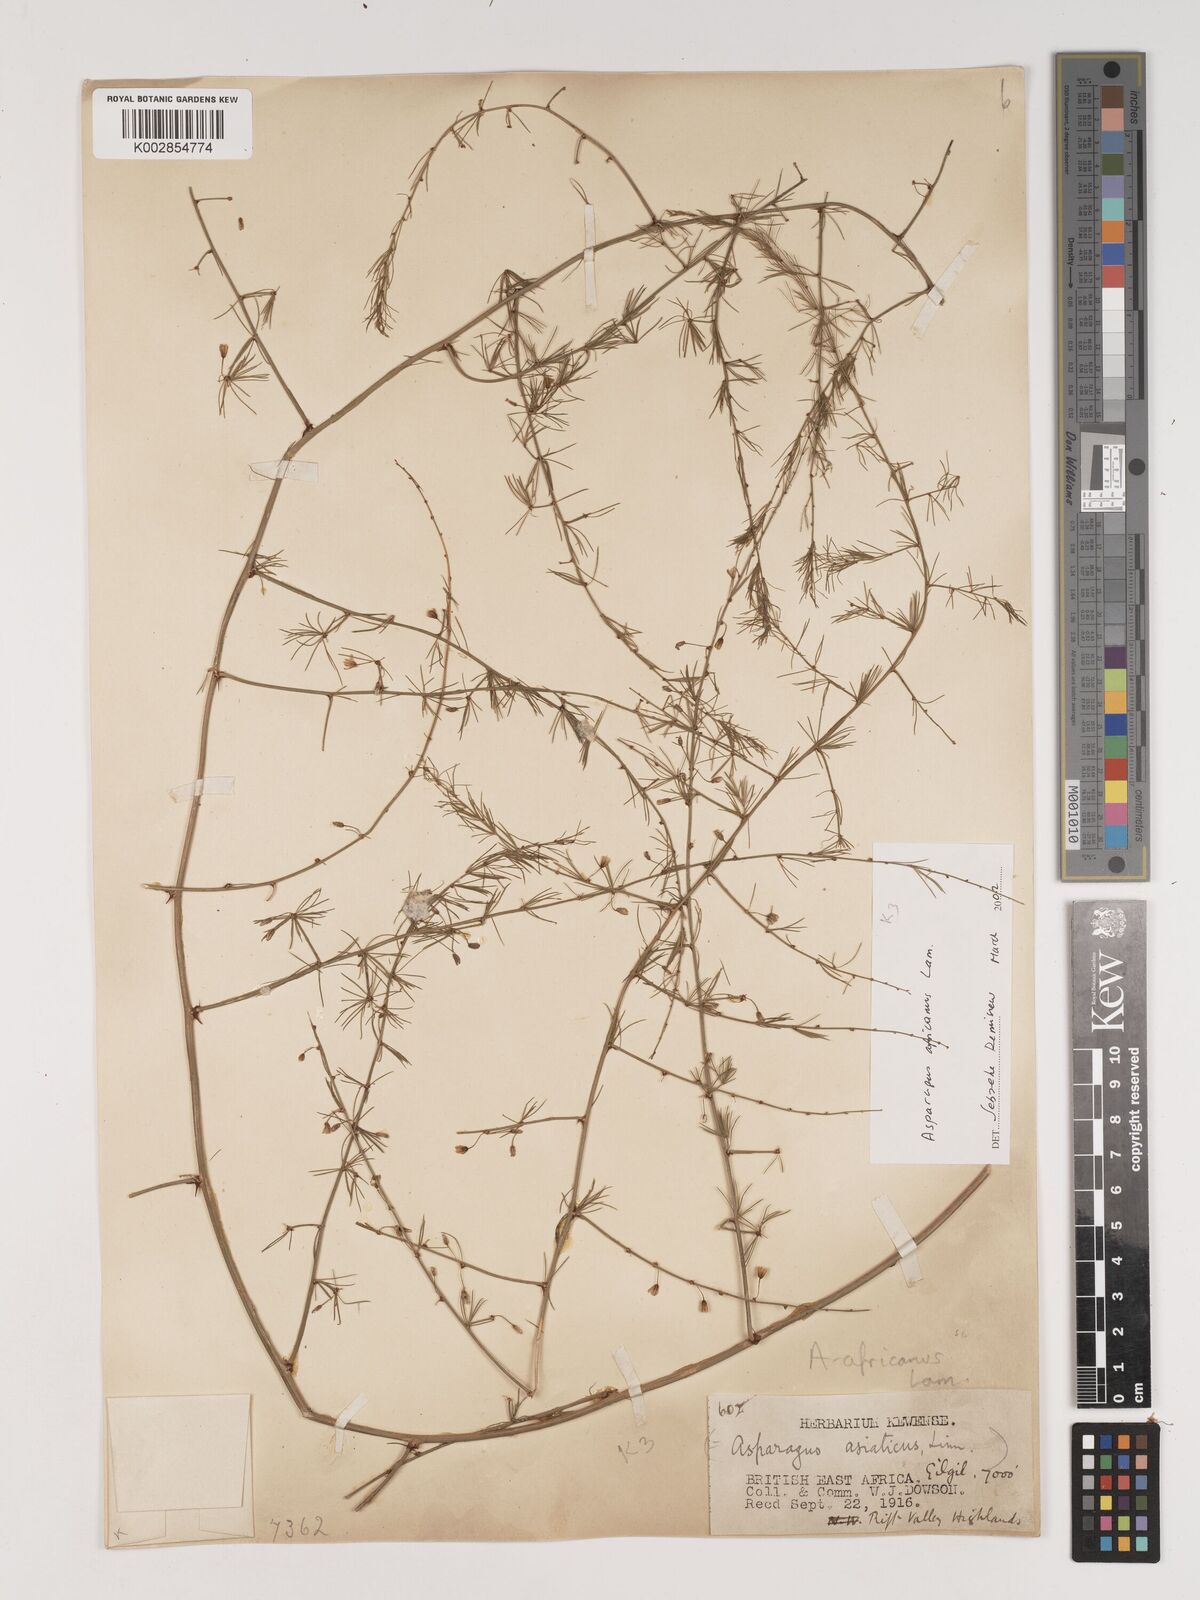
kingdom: Plantae
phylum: Tracheophyta
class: Liliopsida
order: Asparagales
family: Asparagaceae
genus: Asparagus
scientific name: Asparagus africanus
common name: Asparagus-fern
